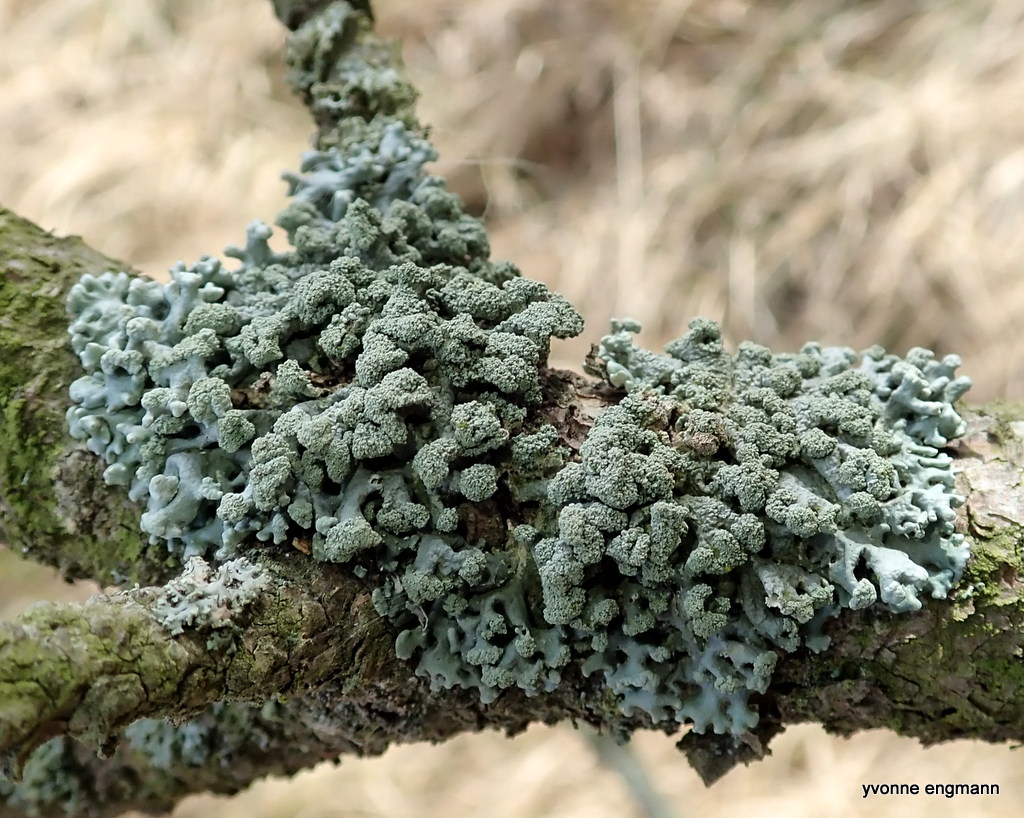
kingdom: Fungi
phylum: Ascomycota
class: Lecanoromycetes
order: Lecanorales
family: Parmeliaceae
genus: Hypogymnia
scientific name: Hypogymnia tubulosa
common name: finger-kvistlav
